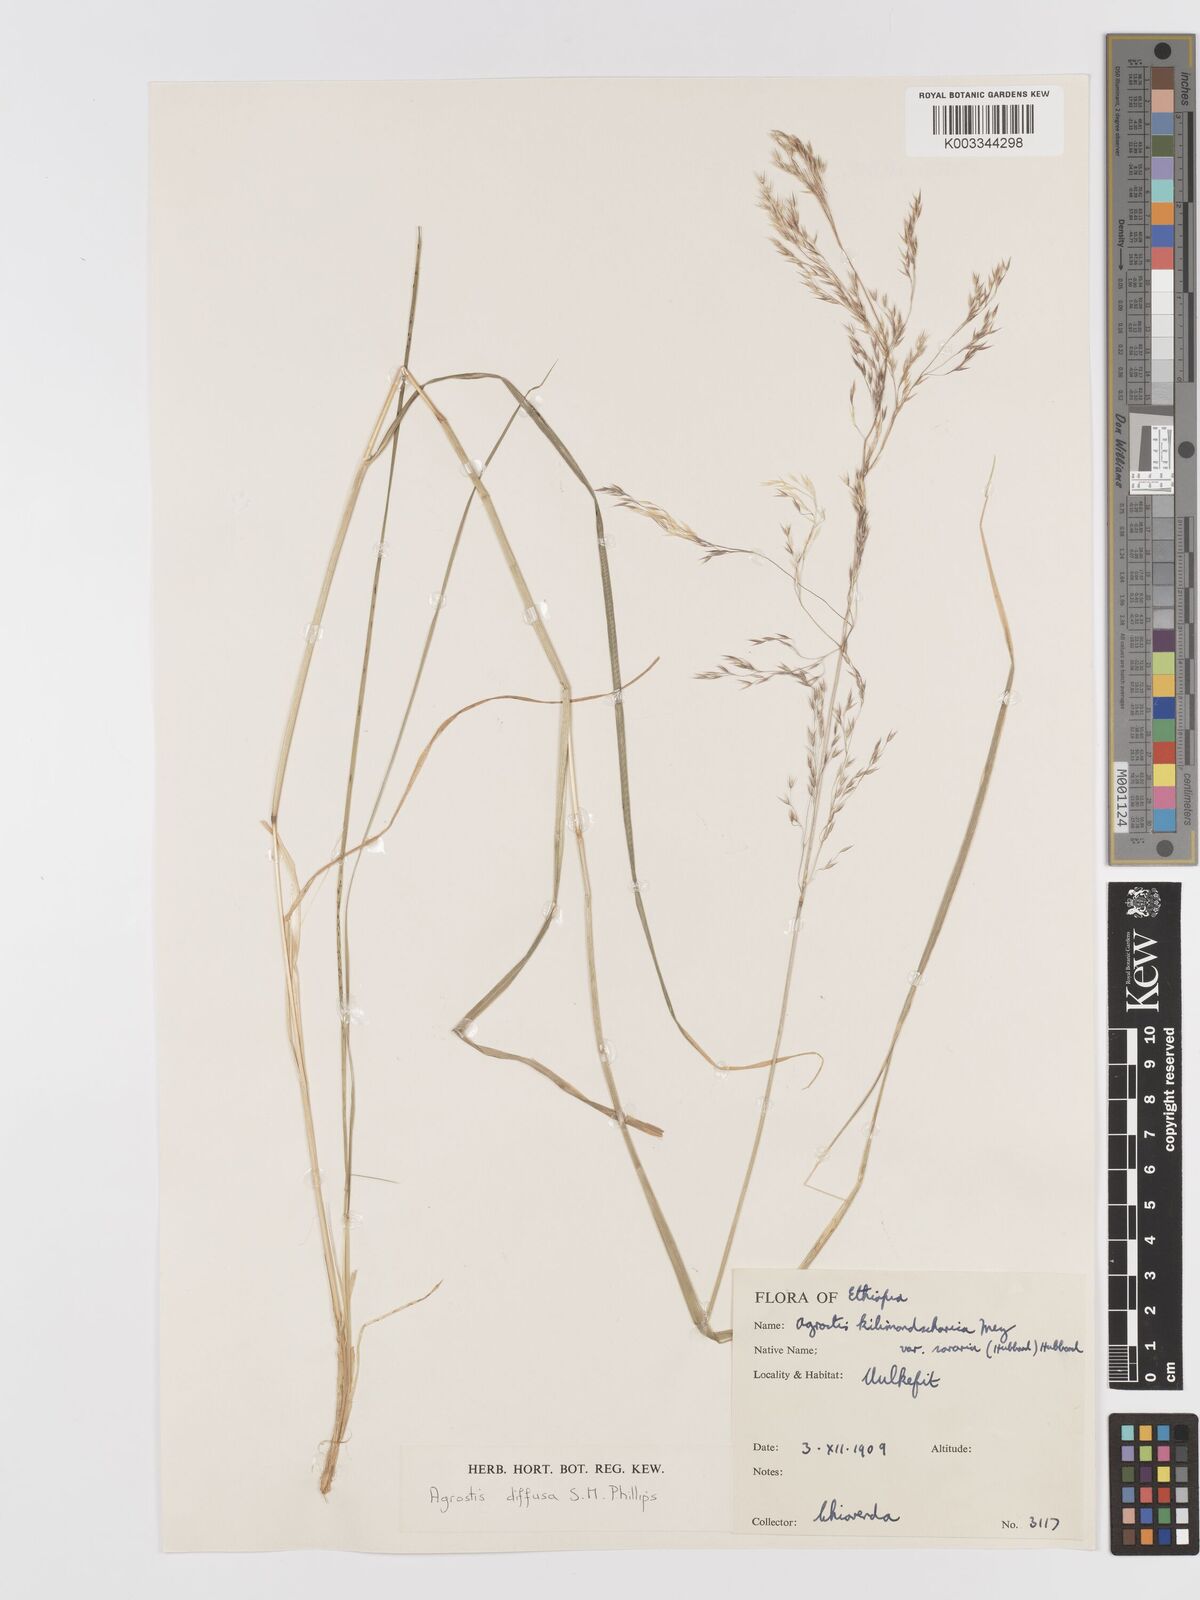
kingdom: Plantae
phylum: Tracheophyta
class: Liliopsida
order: Poales
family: Poaceae
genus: Agrostis
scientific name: Agrostis diffusa
